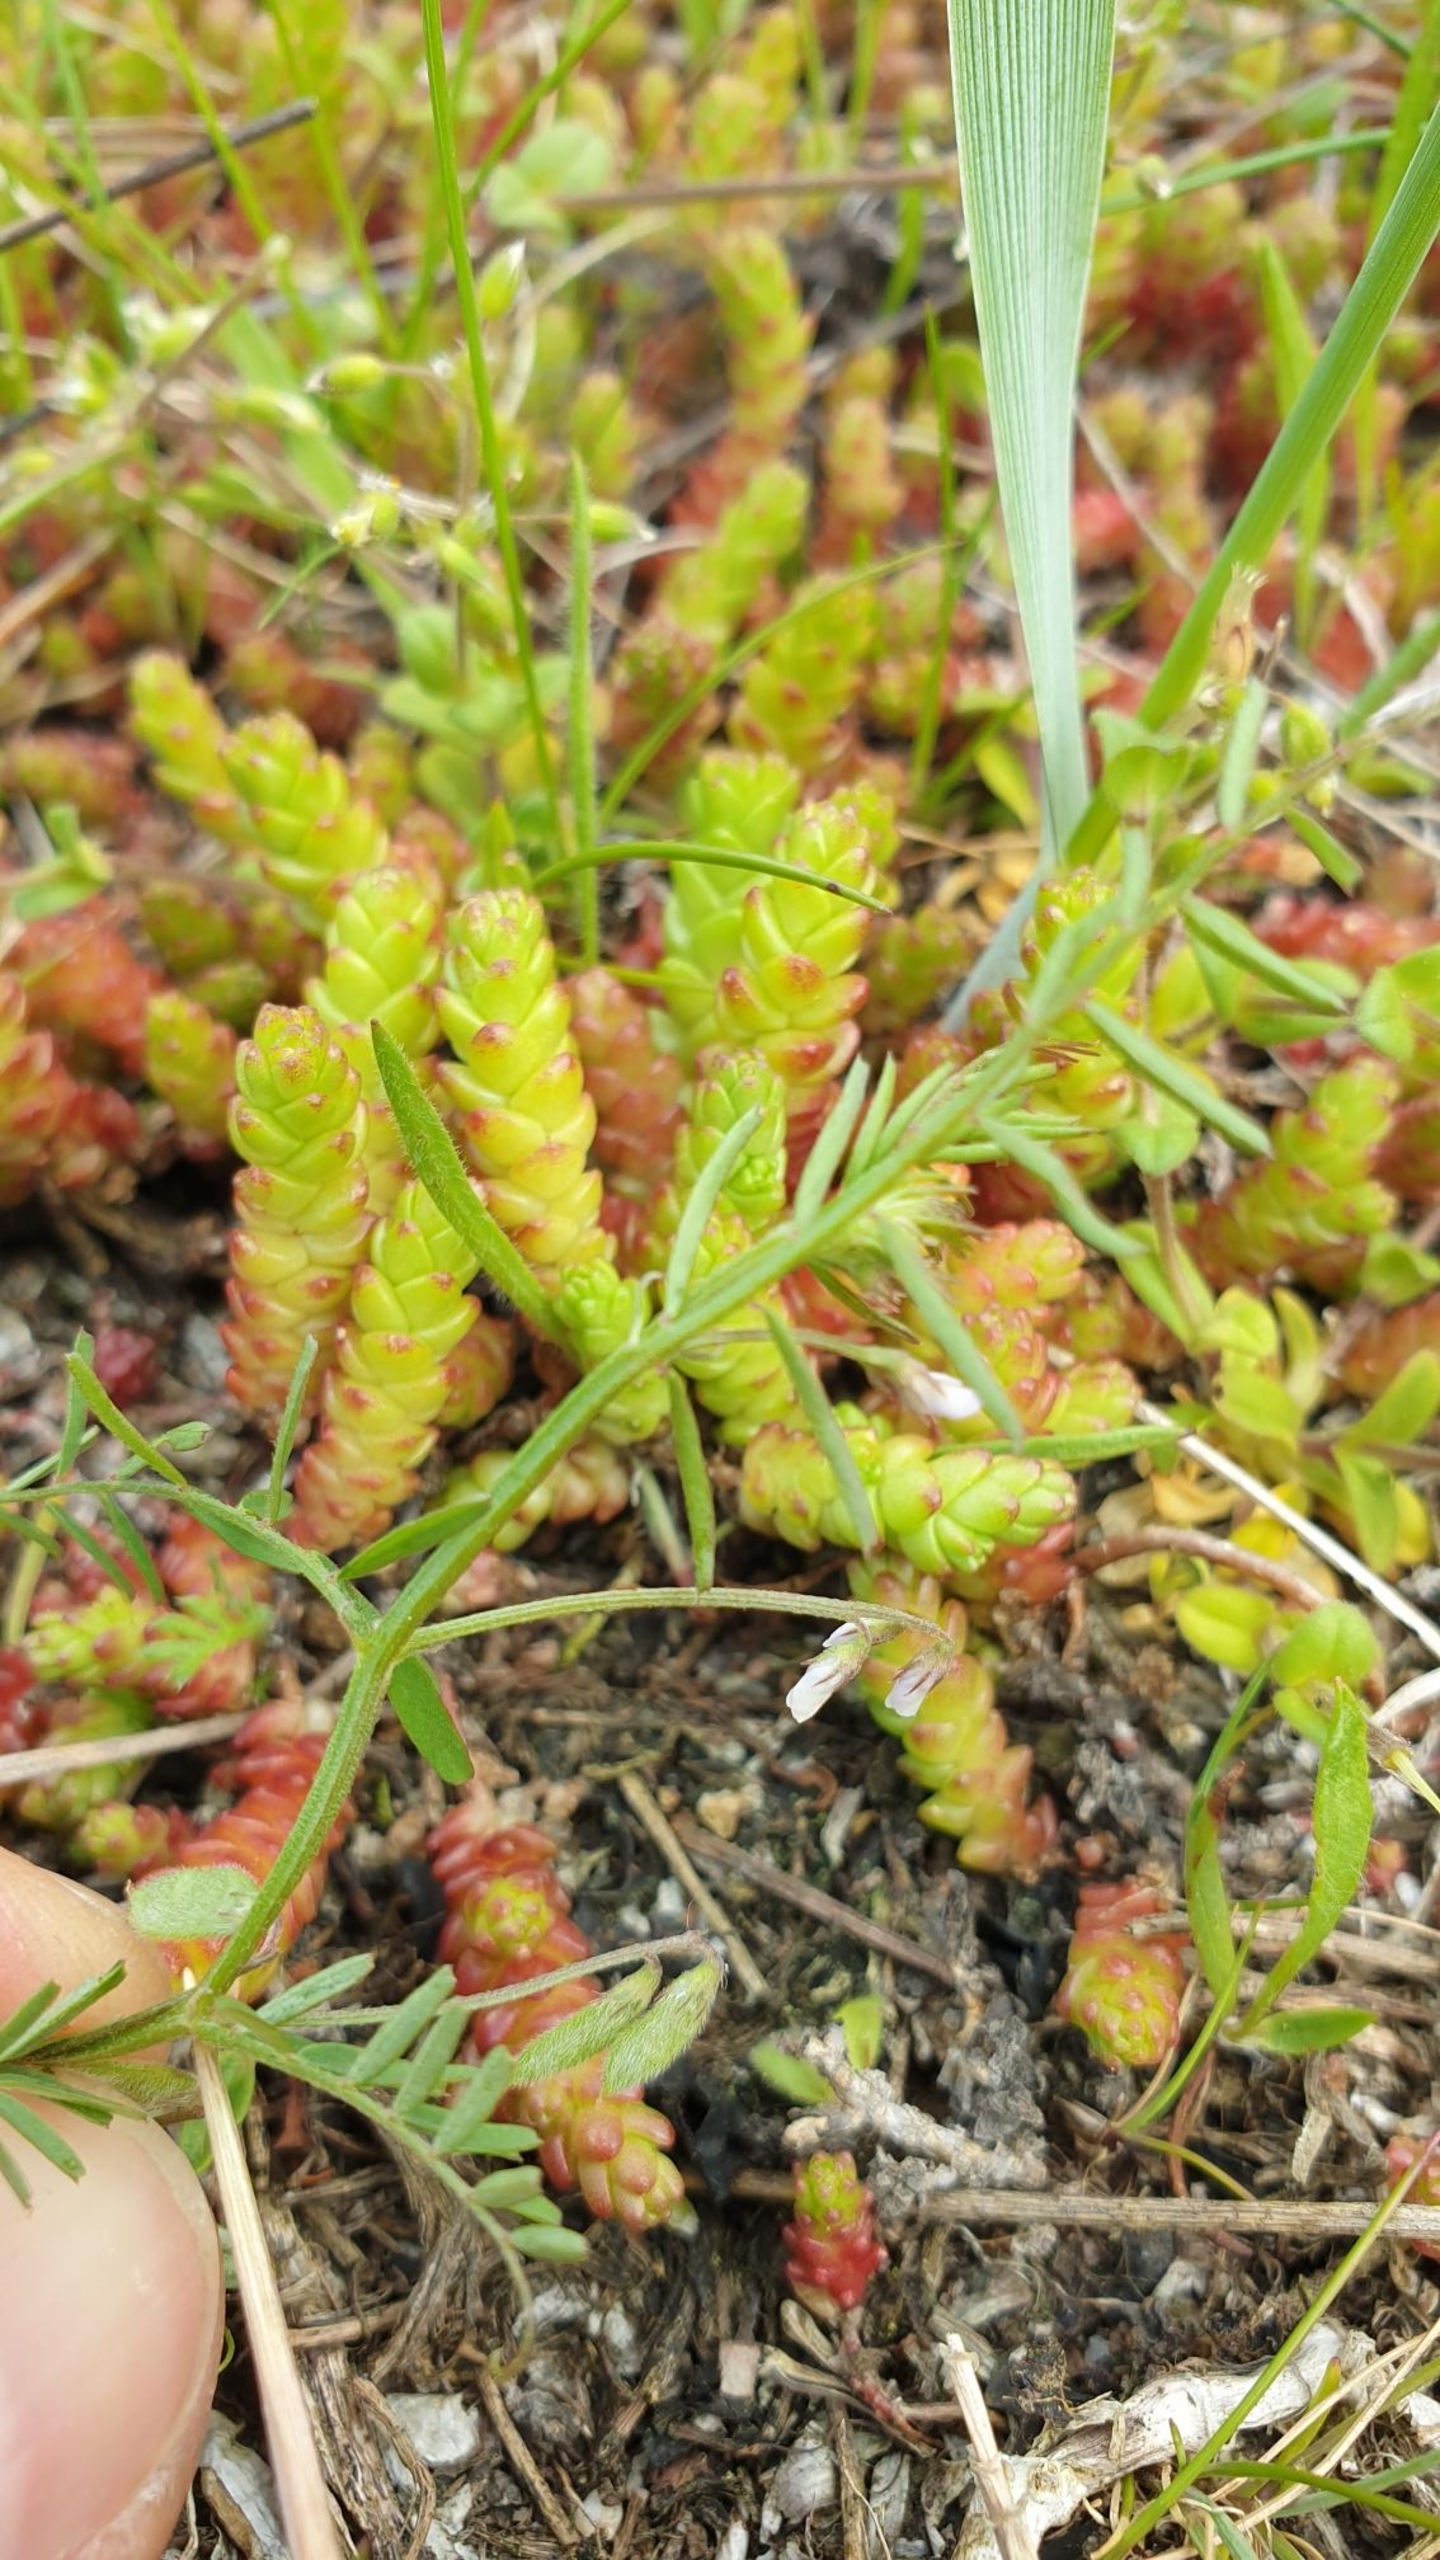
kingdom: Plantae
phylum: Tracheophyta
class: Magnoliopsida
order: Saxifragales
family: Crassulaceae
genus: Sedum
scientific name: Sedum acre
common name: Bidende stenurt
